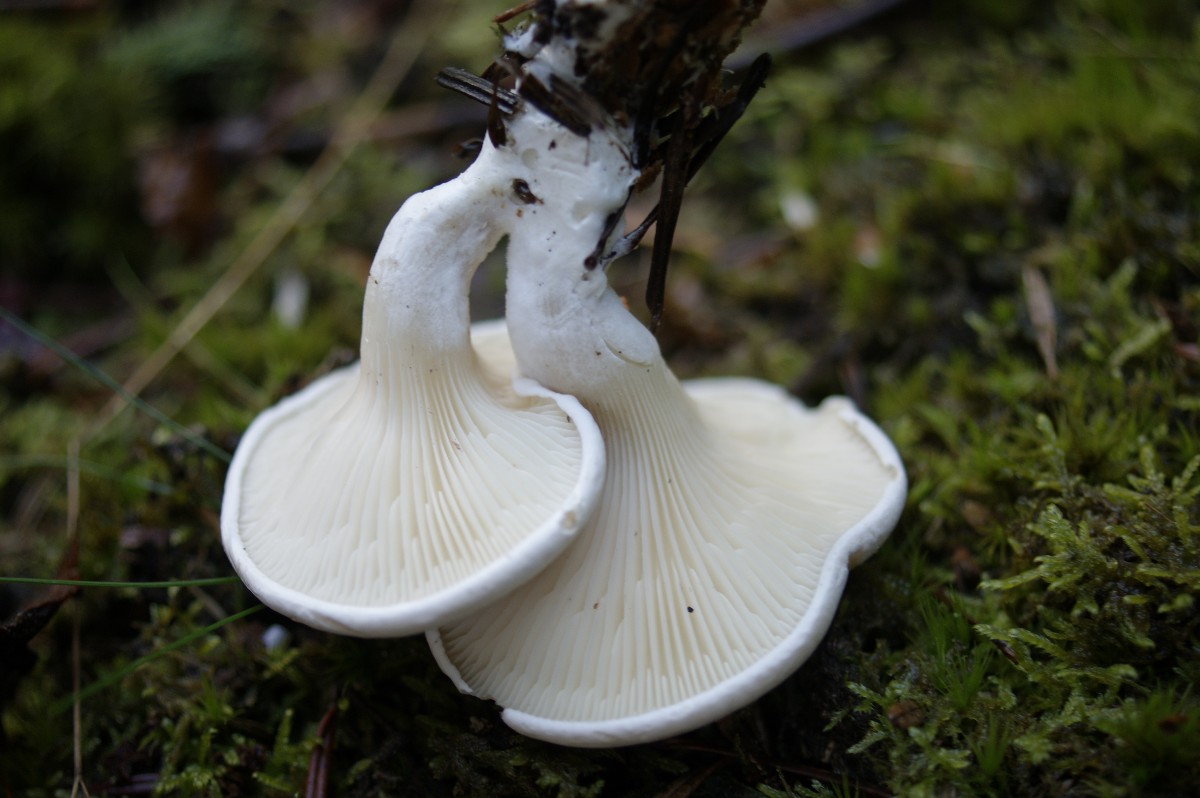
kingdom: Fungi
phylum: Basidiomycota
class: Agaricomycetes
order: Agaricales
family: Entolomataceae
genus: Clitopilus
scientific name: Clitopilus prunulus
